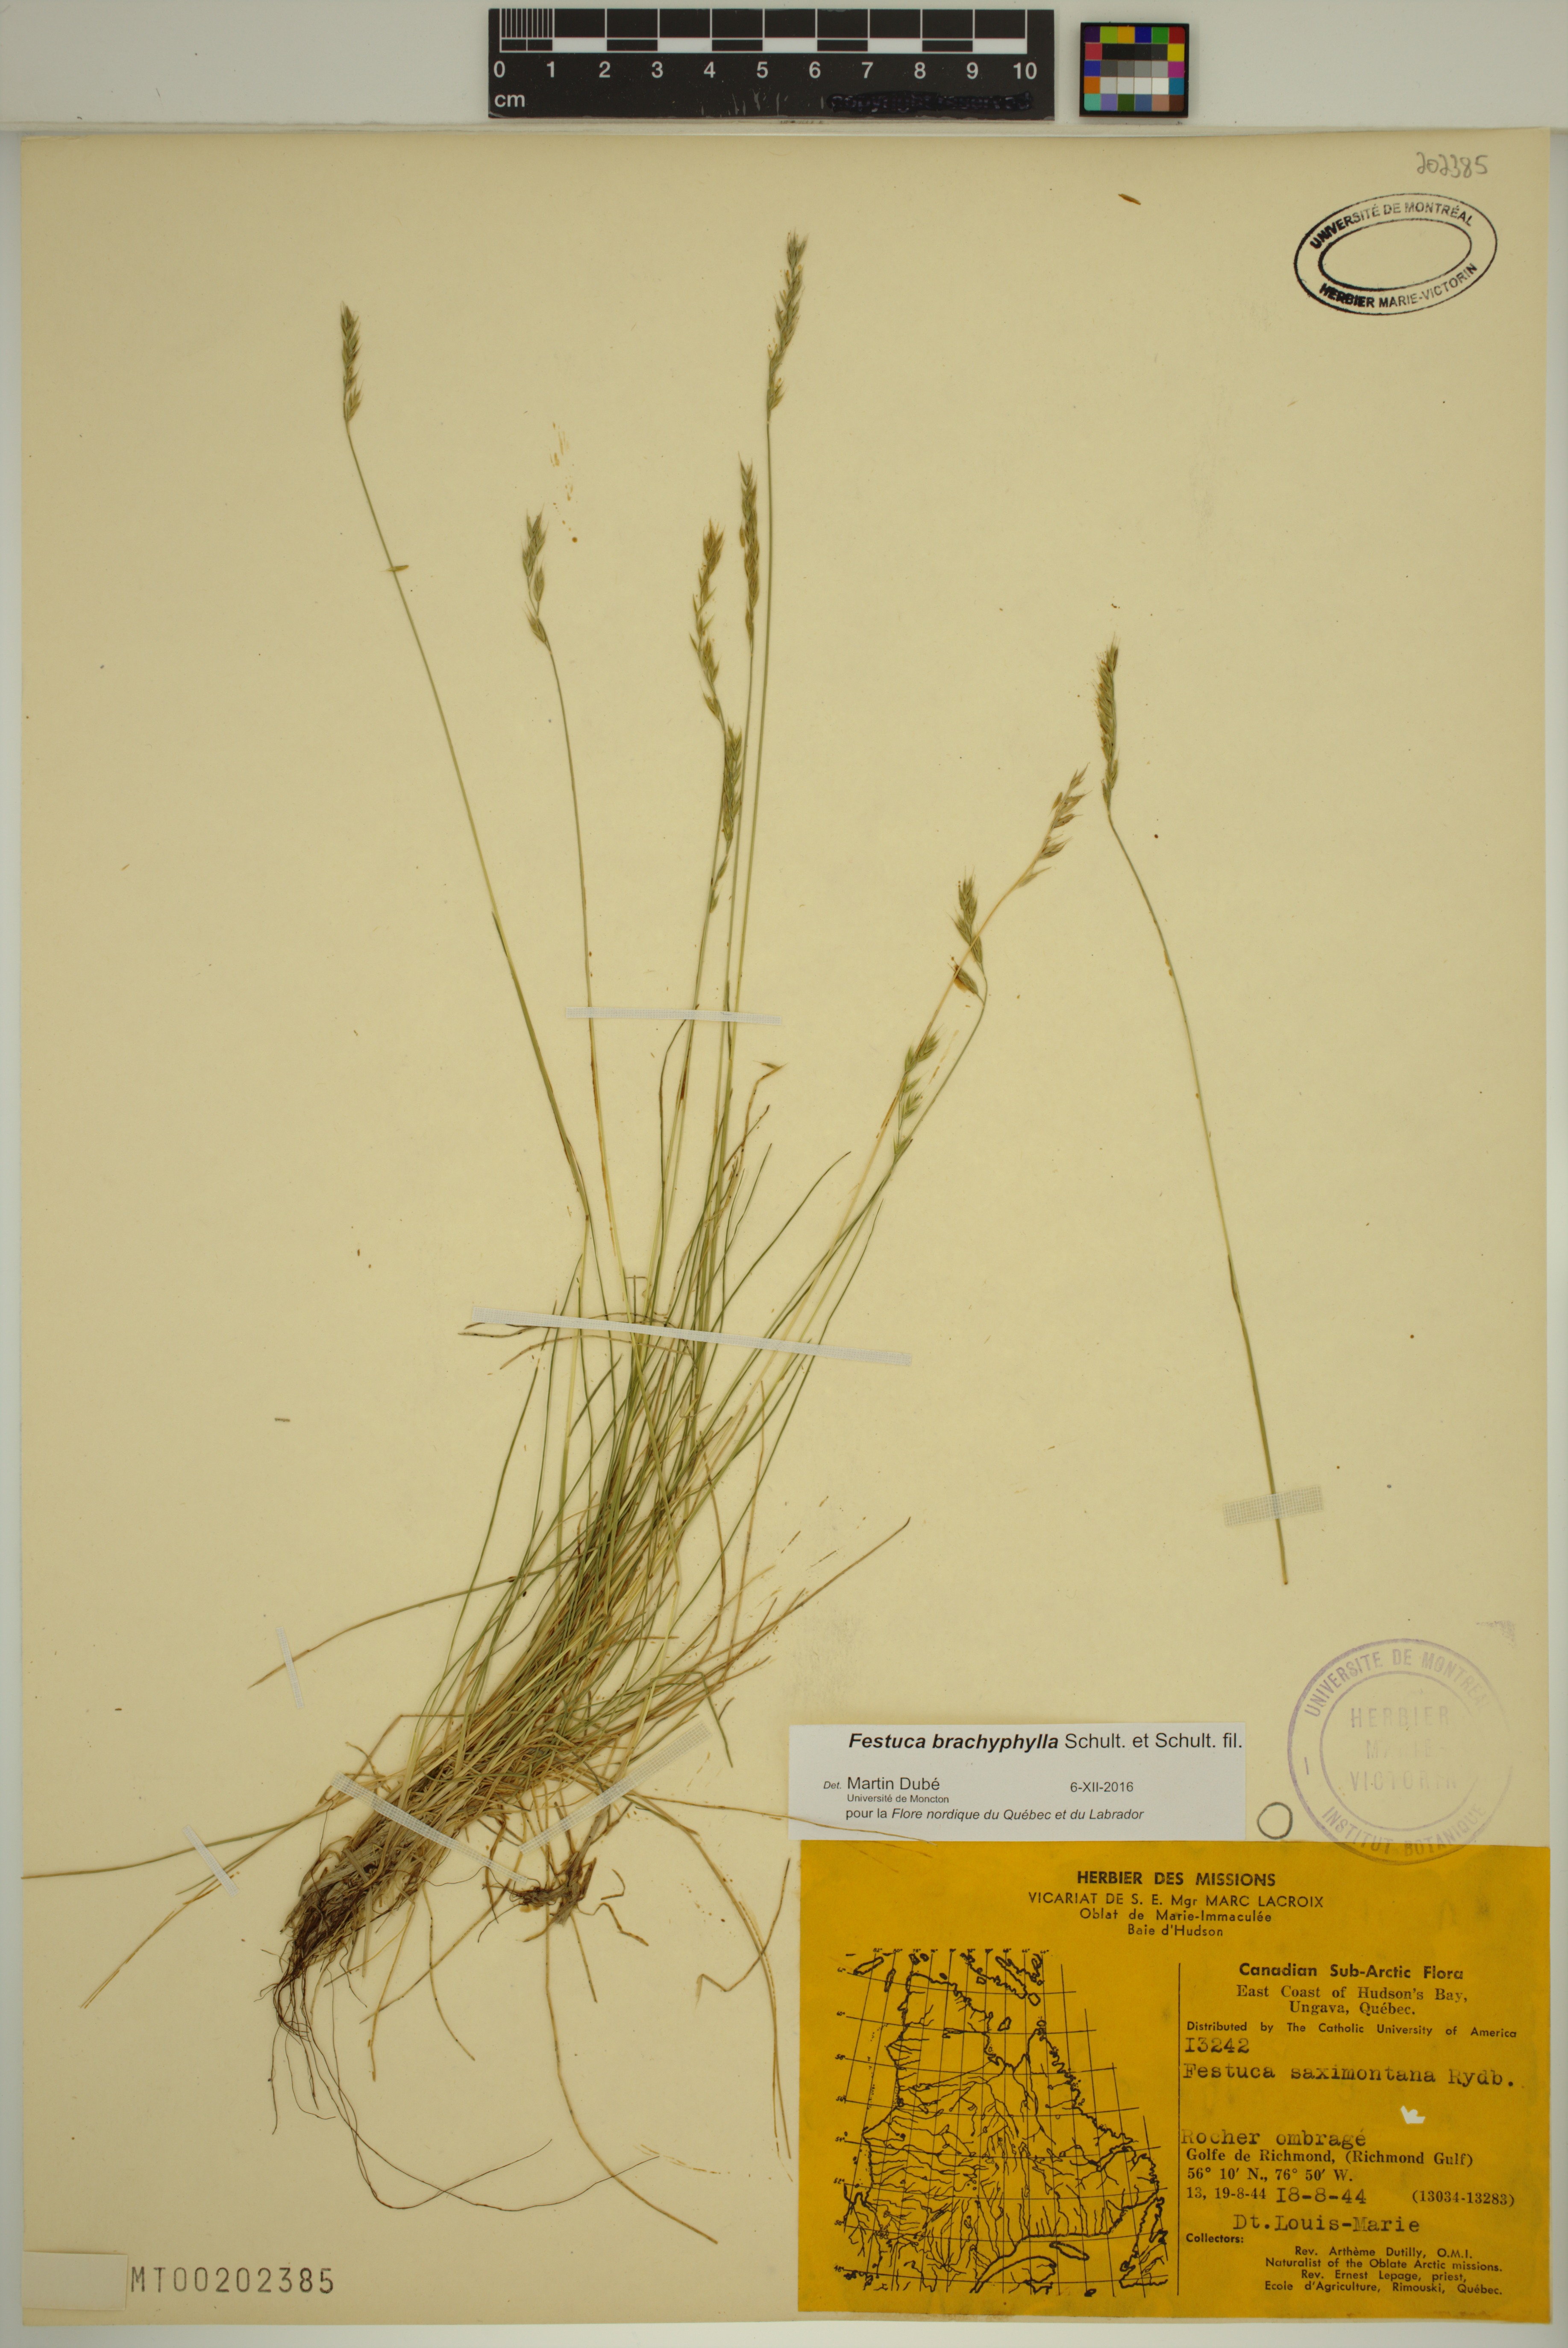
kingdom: Plantae
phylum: Tracheophyta
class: Liliopsida
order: Poales
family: Poaceae
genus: Festuca
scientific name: Festuca brachyphylla
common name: Alpine fescue
